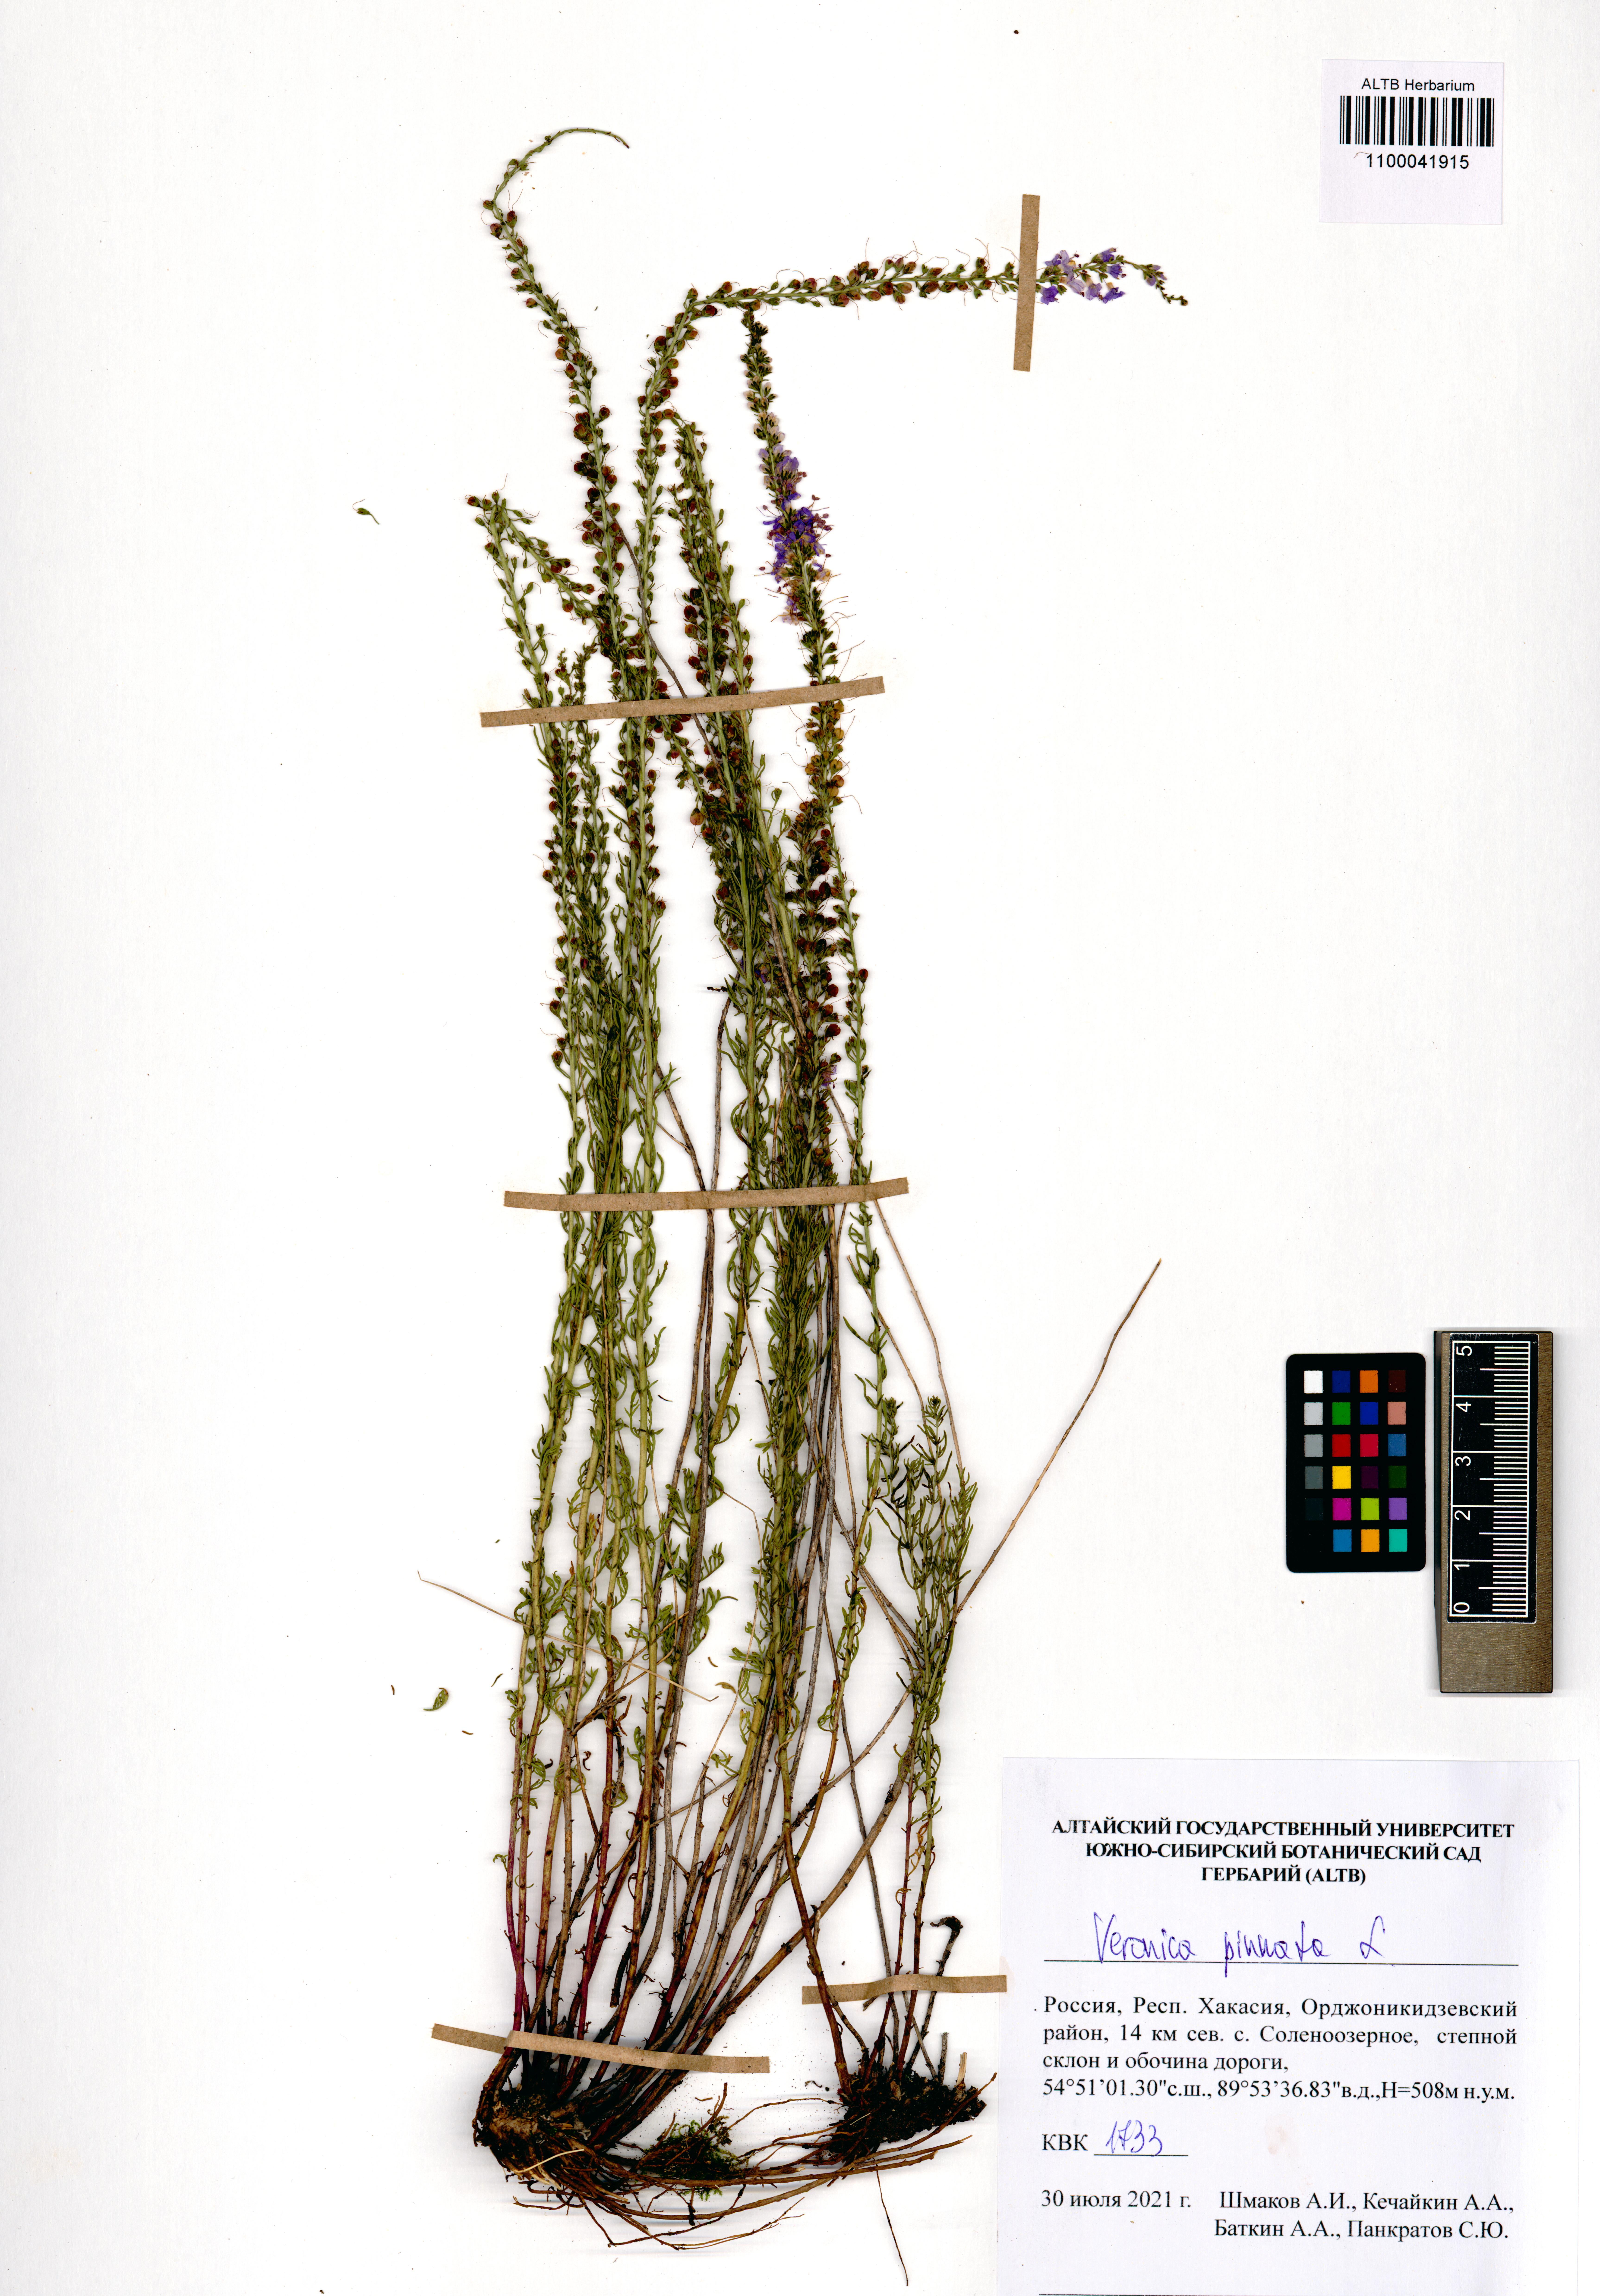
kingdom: Plantae
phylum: Tracheophyta
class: Magnoliopsida
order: Lamiales
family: Plantaginaceae
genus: Veronica
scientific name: Veronica pinnata
